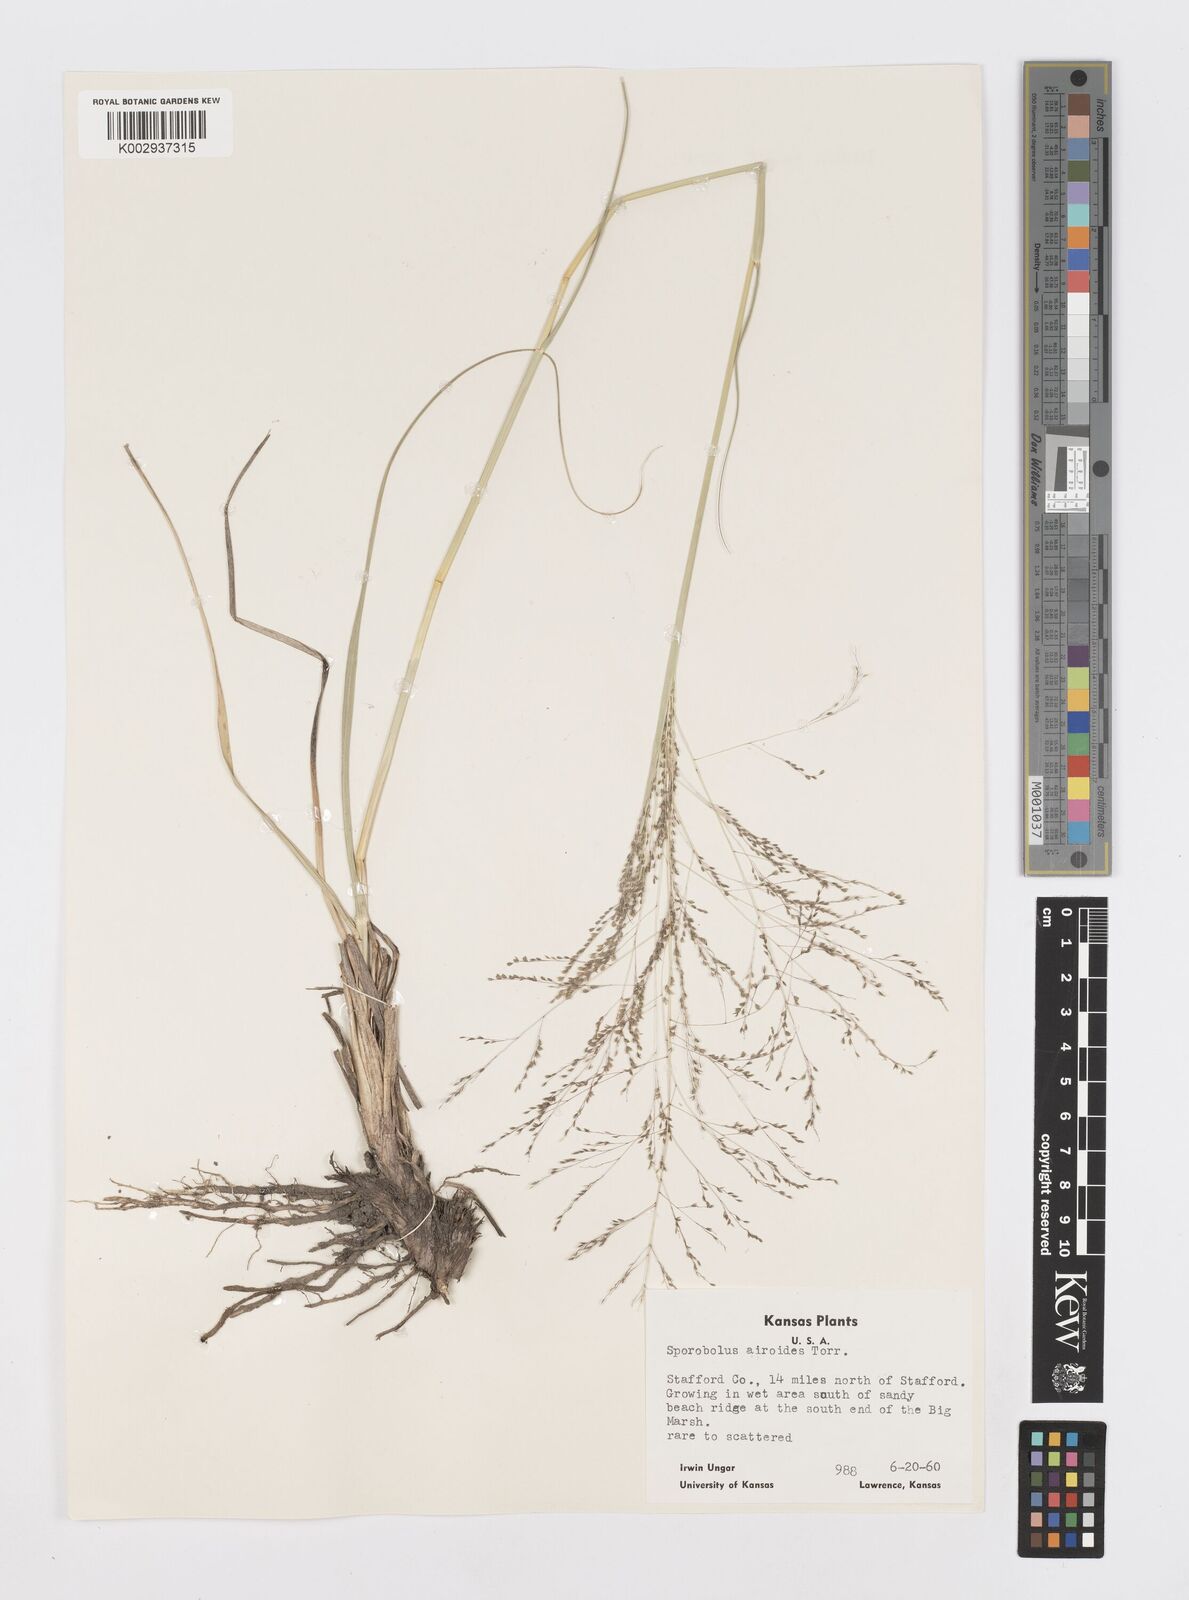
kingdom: Plantae
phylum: Tracheophyta
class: Liliopsida
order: Poales
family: Poaceae
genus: Sporobolus
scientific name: Sporobolus airoides
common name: Alkali sacaton
